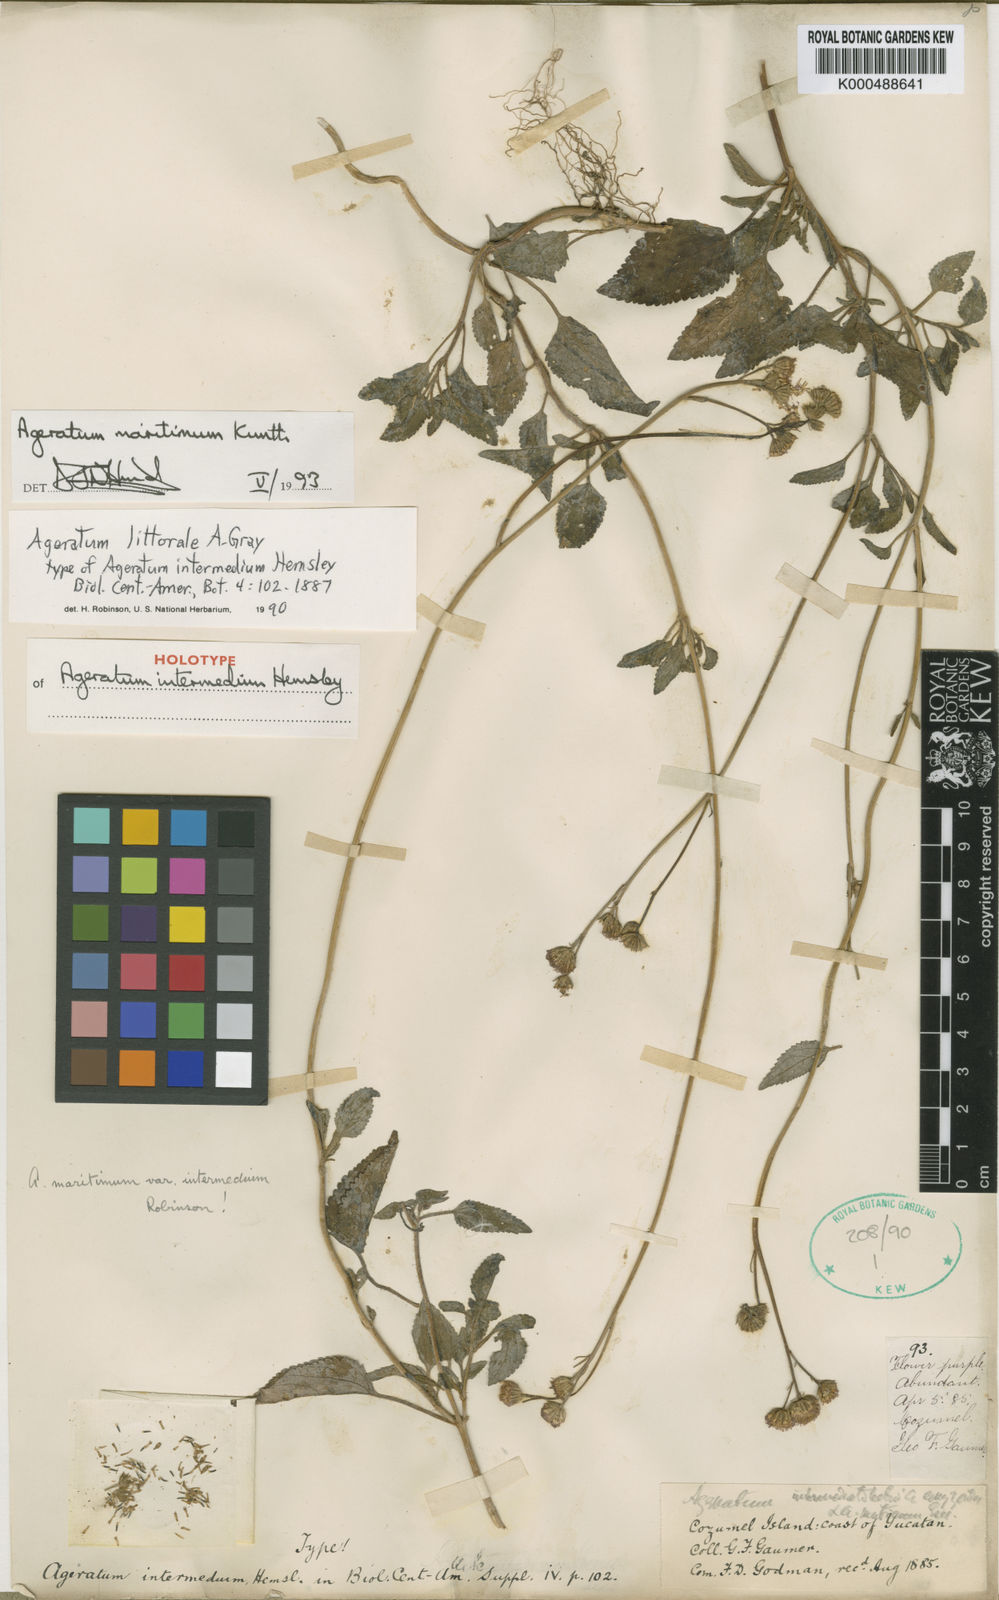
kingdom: Plantae
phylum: Tracheophyta
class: Magnoliopsida
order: Asterales
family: Asteraceae
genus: Ageratum
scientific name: Ageratum maritimum
